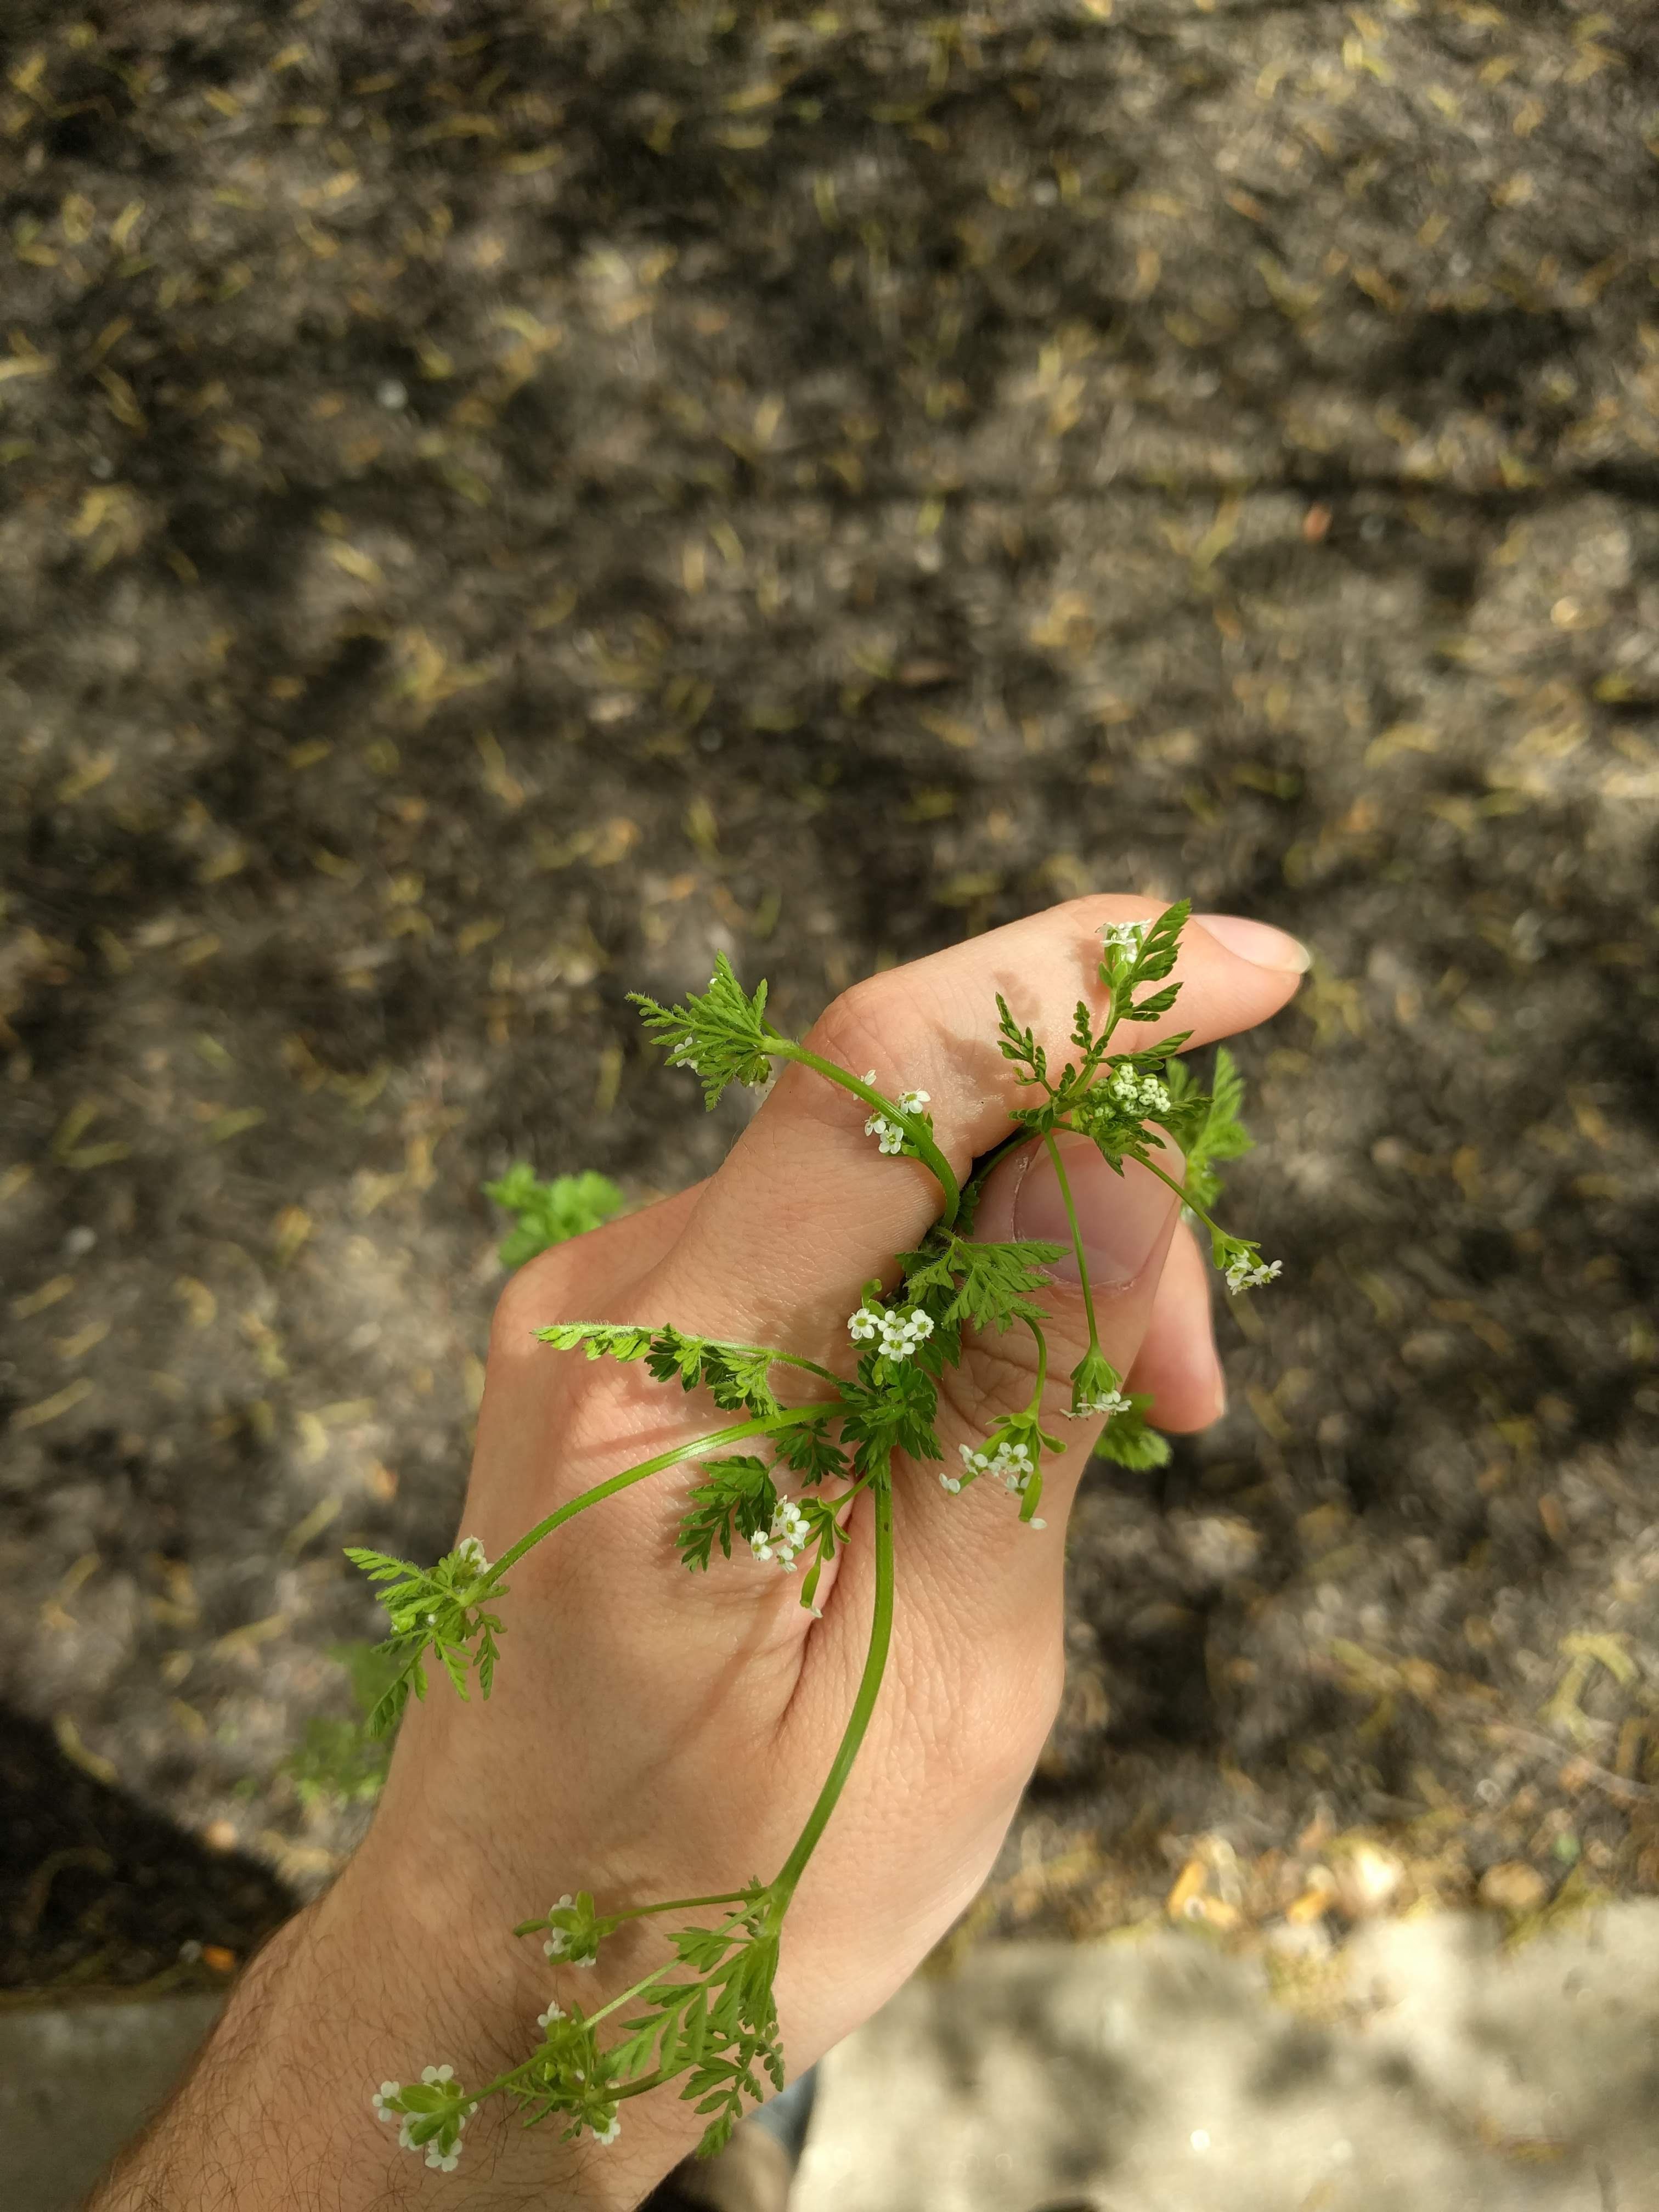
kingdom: Plantae
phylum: Tracheophyta
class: Magnoliopsida
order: Apiales
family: Apiaceae
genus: Chaerophyllum
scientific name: Chaerophyllum tainturieri
